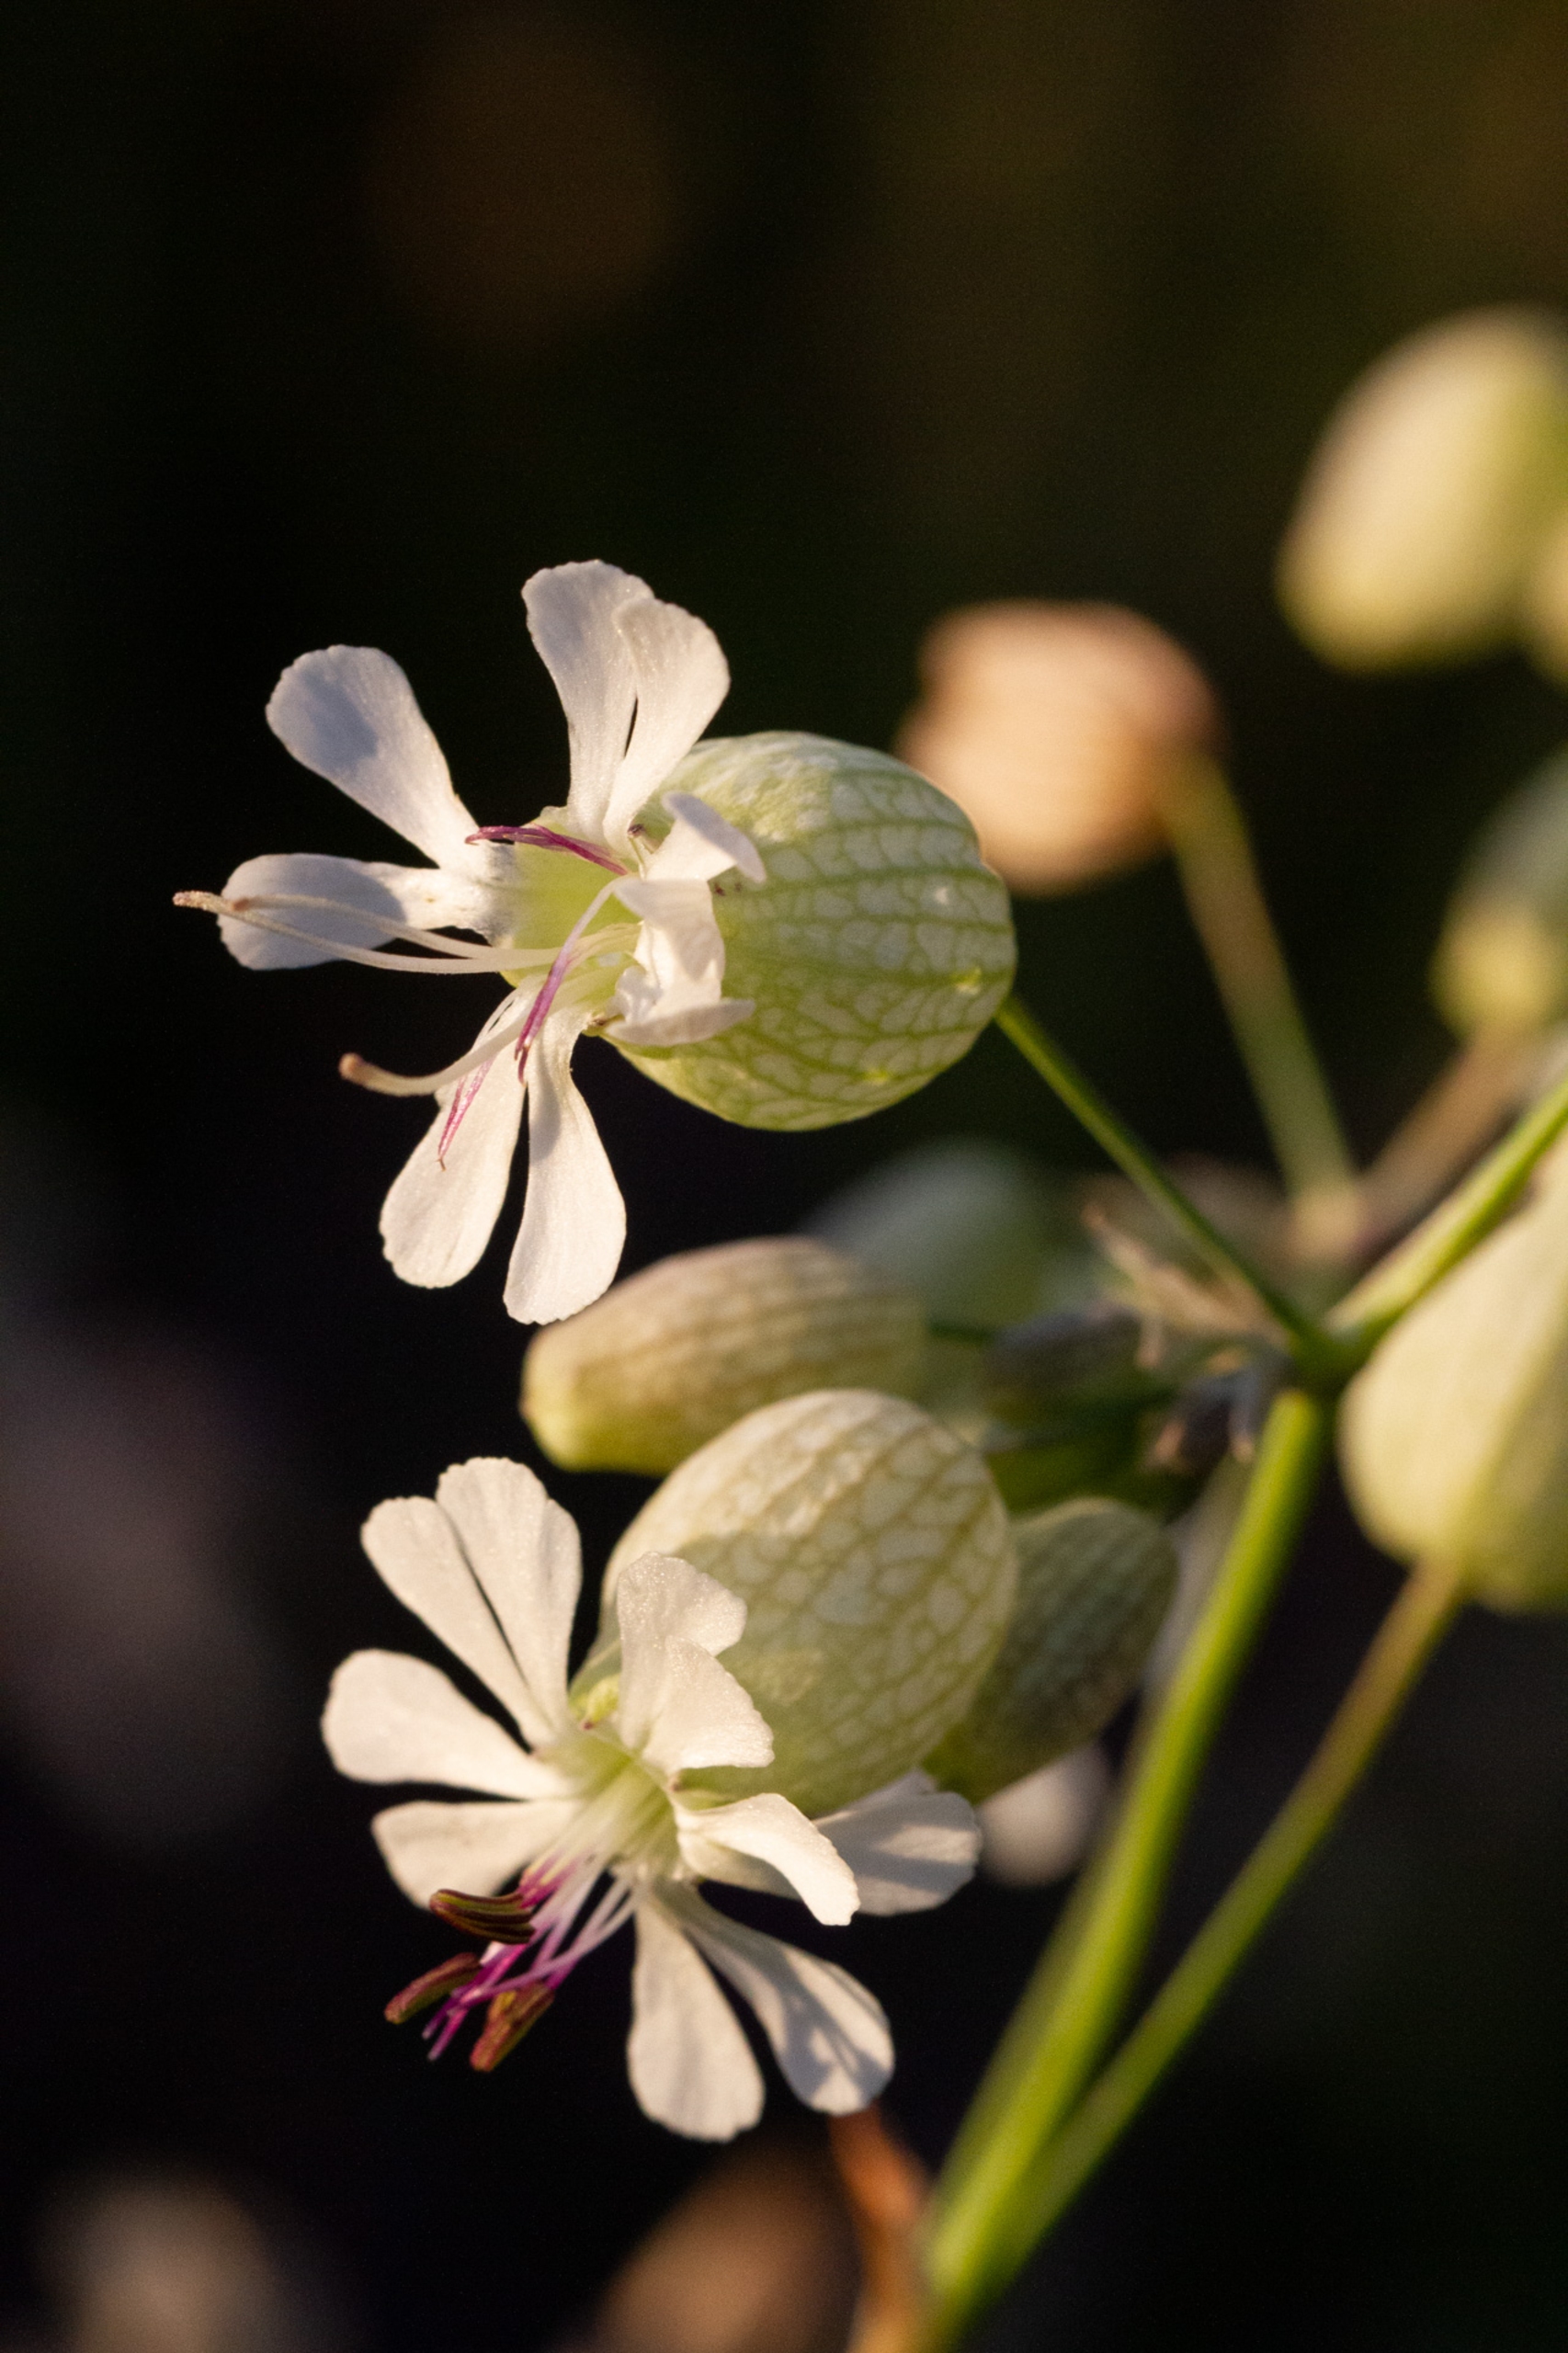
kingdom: Plantae
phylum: Tracheophyta
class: Magnoliopsida
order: Caryophyllales
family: Caryophyllaceae
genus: Silene
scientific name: Silene vulgaris
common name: Blæresmælde
